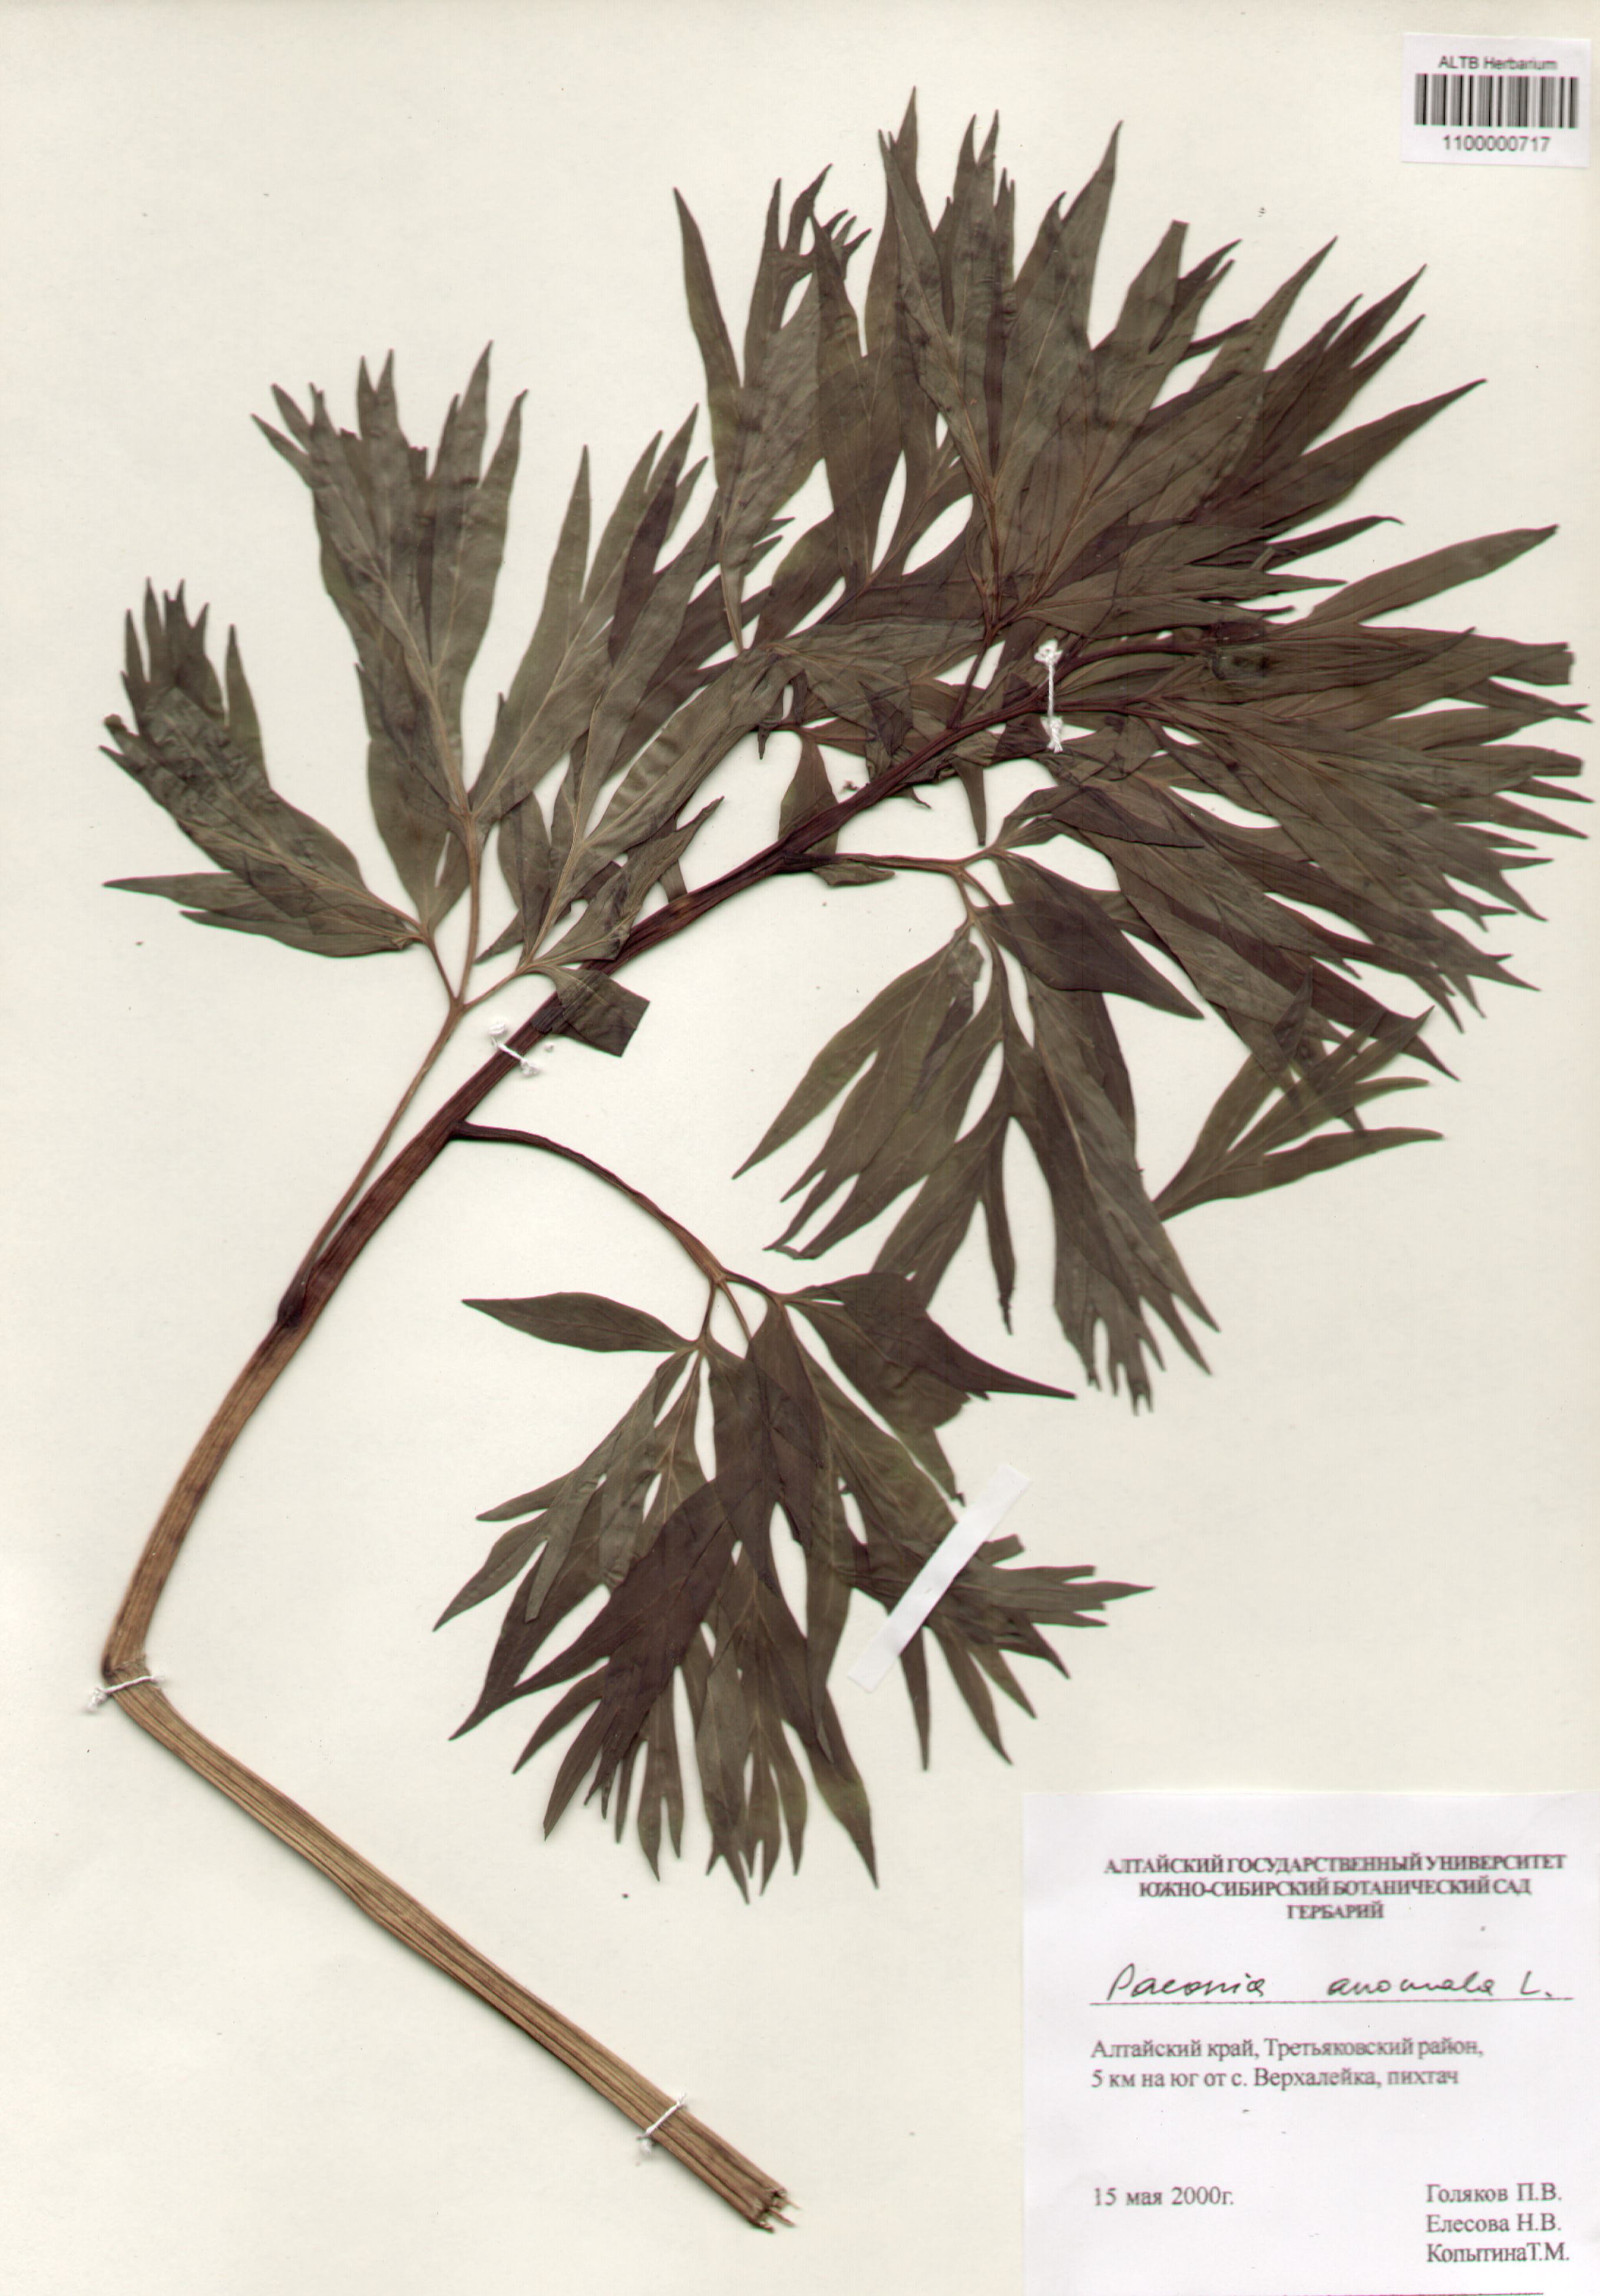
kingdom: Plantae
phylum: Tracheophyta
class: Magnoliopsida
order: Saxifragales
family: Paeoniaceae
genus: Paeonia
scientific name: Paeonia anomala
